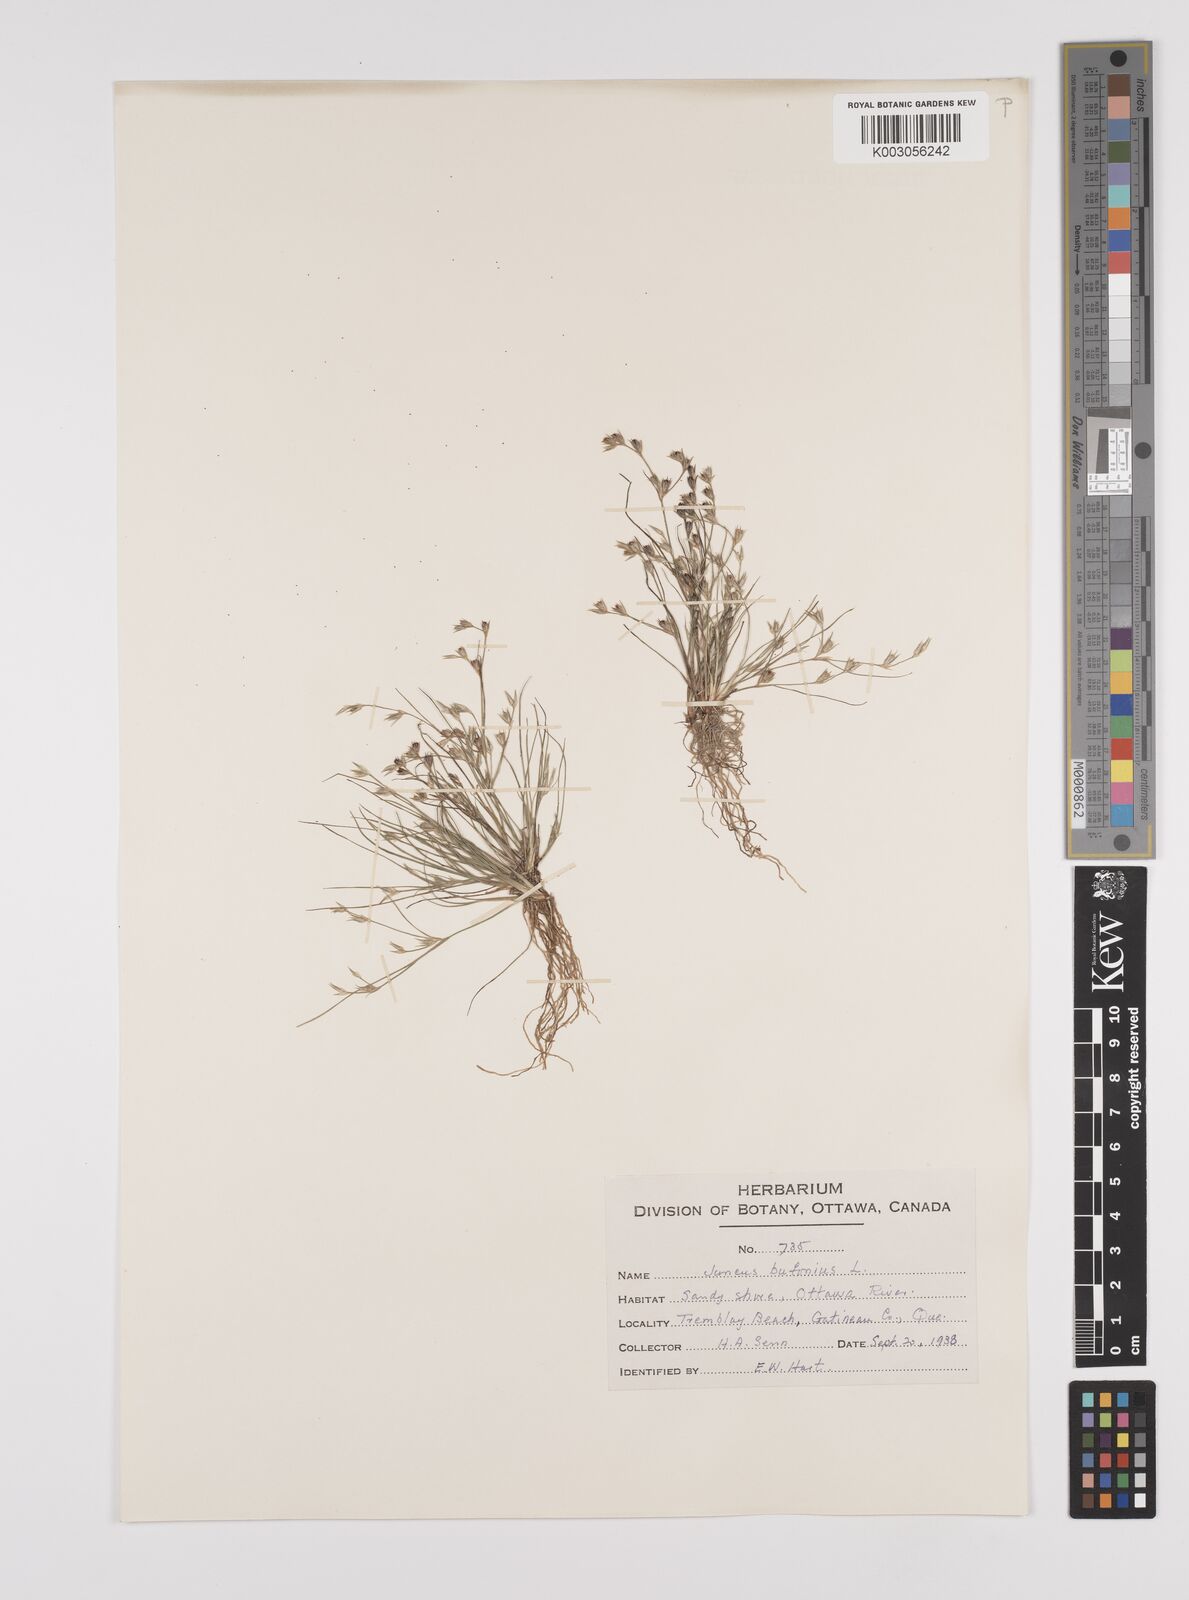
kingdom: Plantae
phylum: Tracheophyta
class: Liliopsida
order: Poales
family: Juncaceae
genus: Juncus
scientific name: Juncus bufonius
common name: Toad rush
